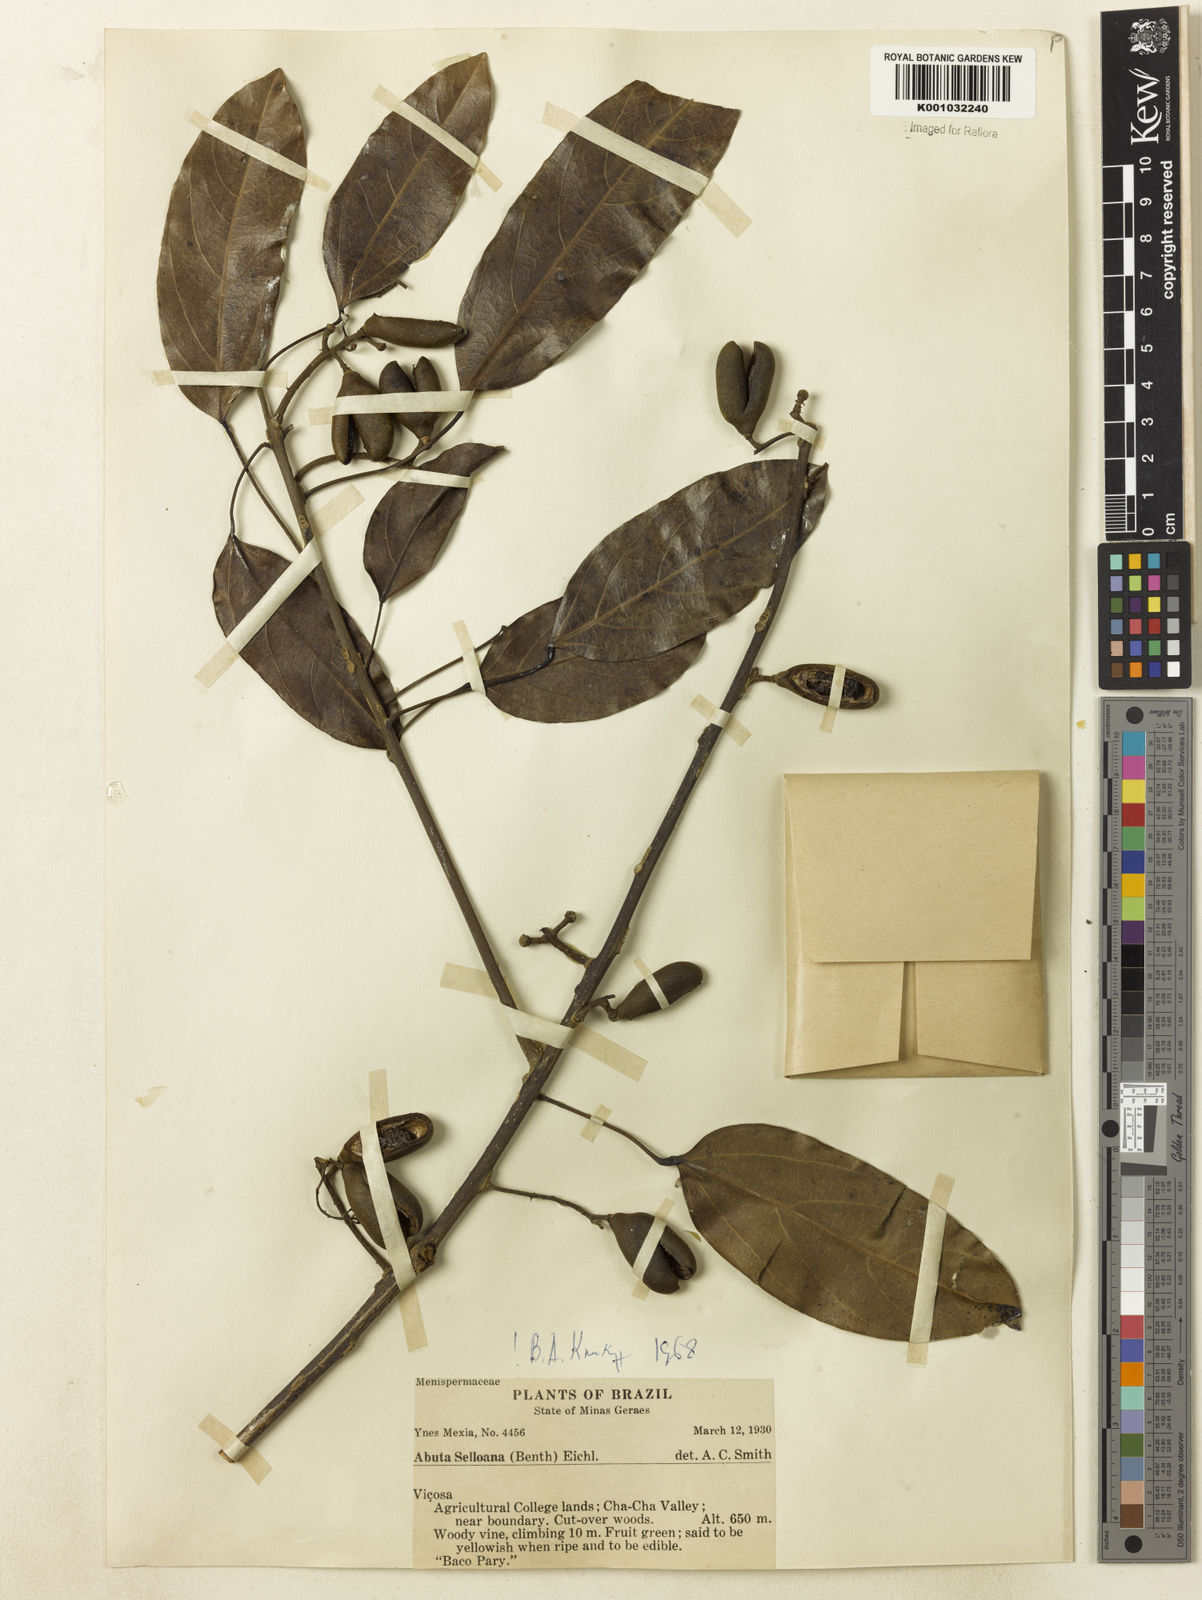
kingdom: Plantae
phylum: Tracheophyta
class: Magnoliopsida
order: Ranunculales
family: Menispermaceae
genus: Abuta
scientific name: Abuta selloana
